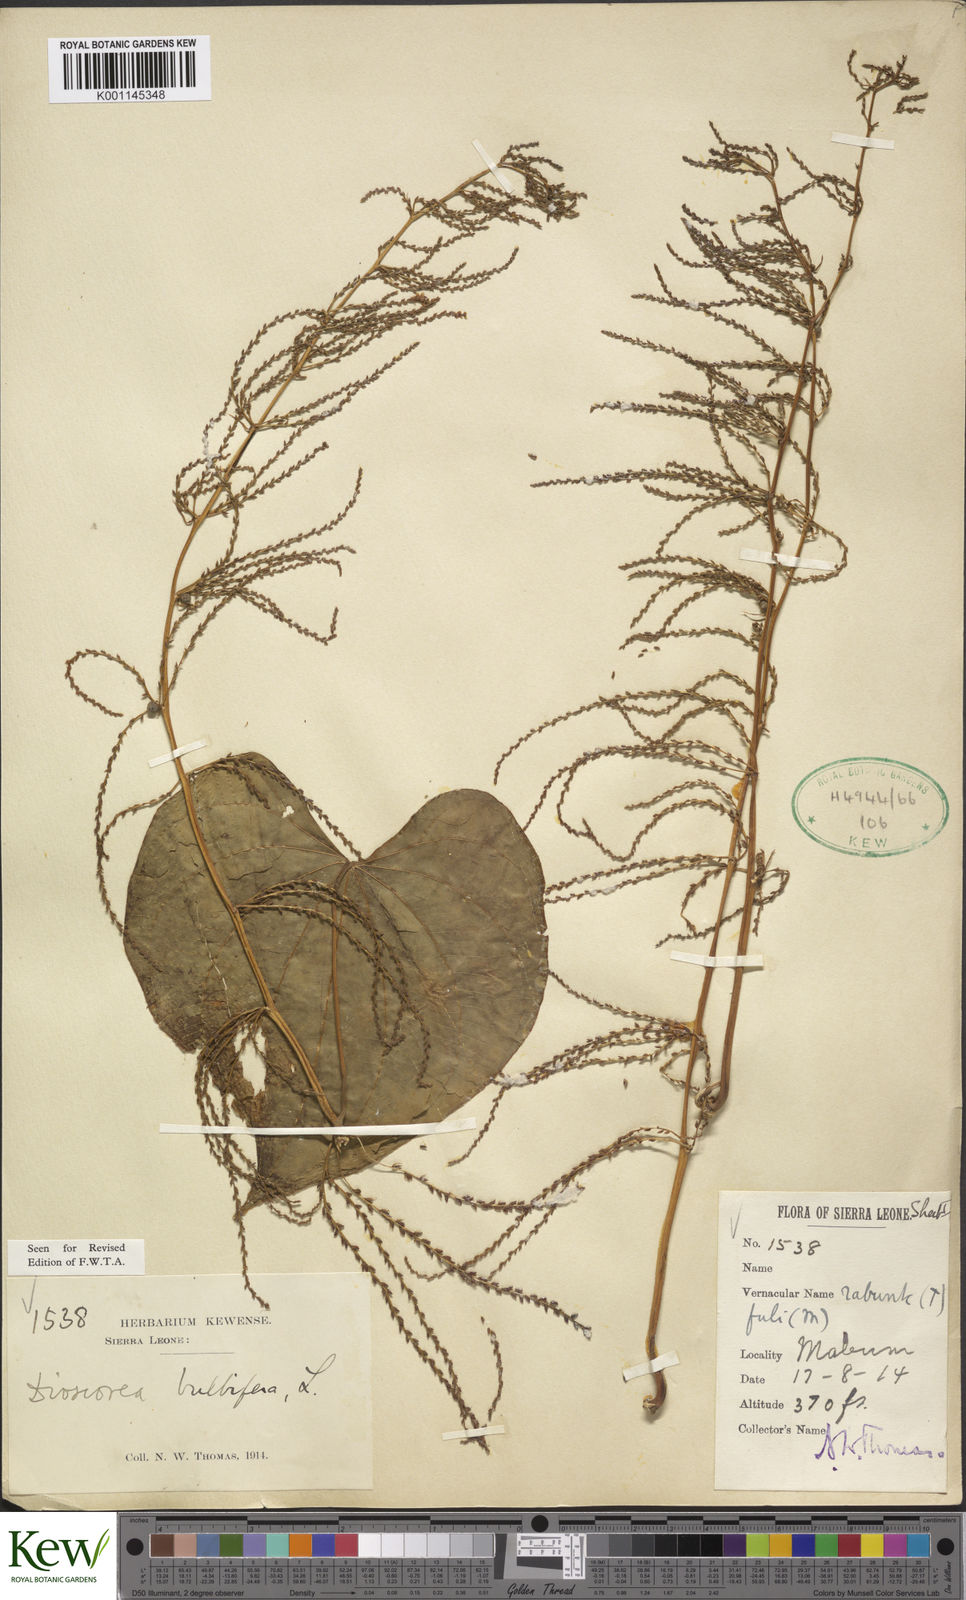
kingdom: Plantae
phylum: Tracheophyta
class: Liliopsida
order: Dioscoreales
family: Dioscoreaceae
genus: Dioscorea
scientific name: Dioscorea bulbifera
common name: Air yam
